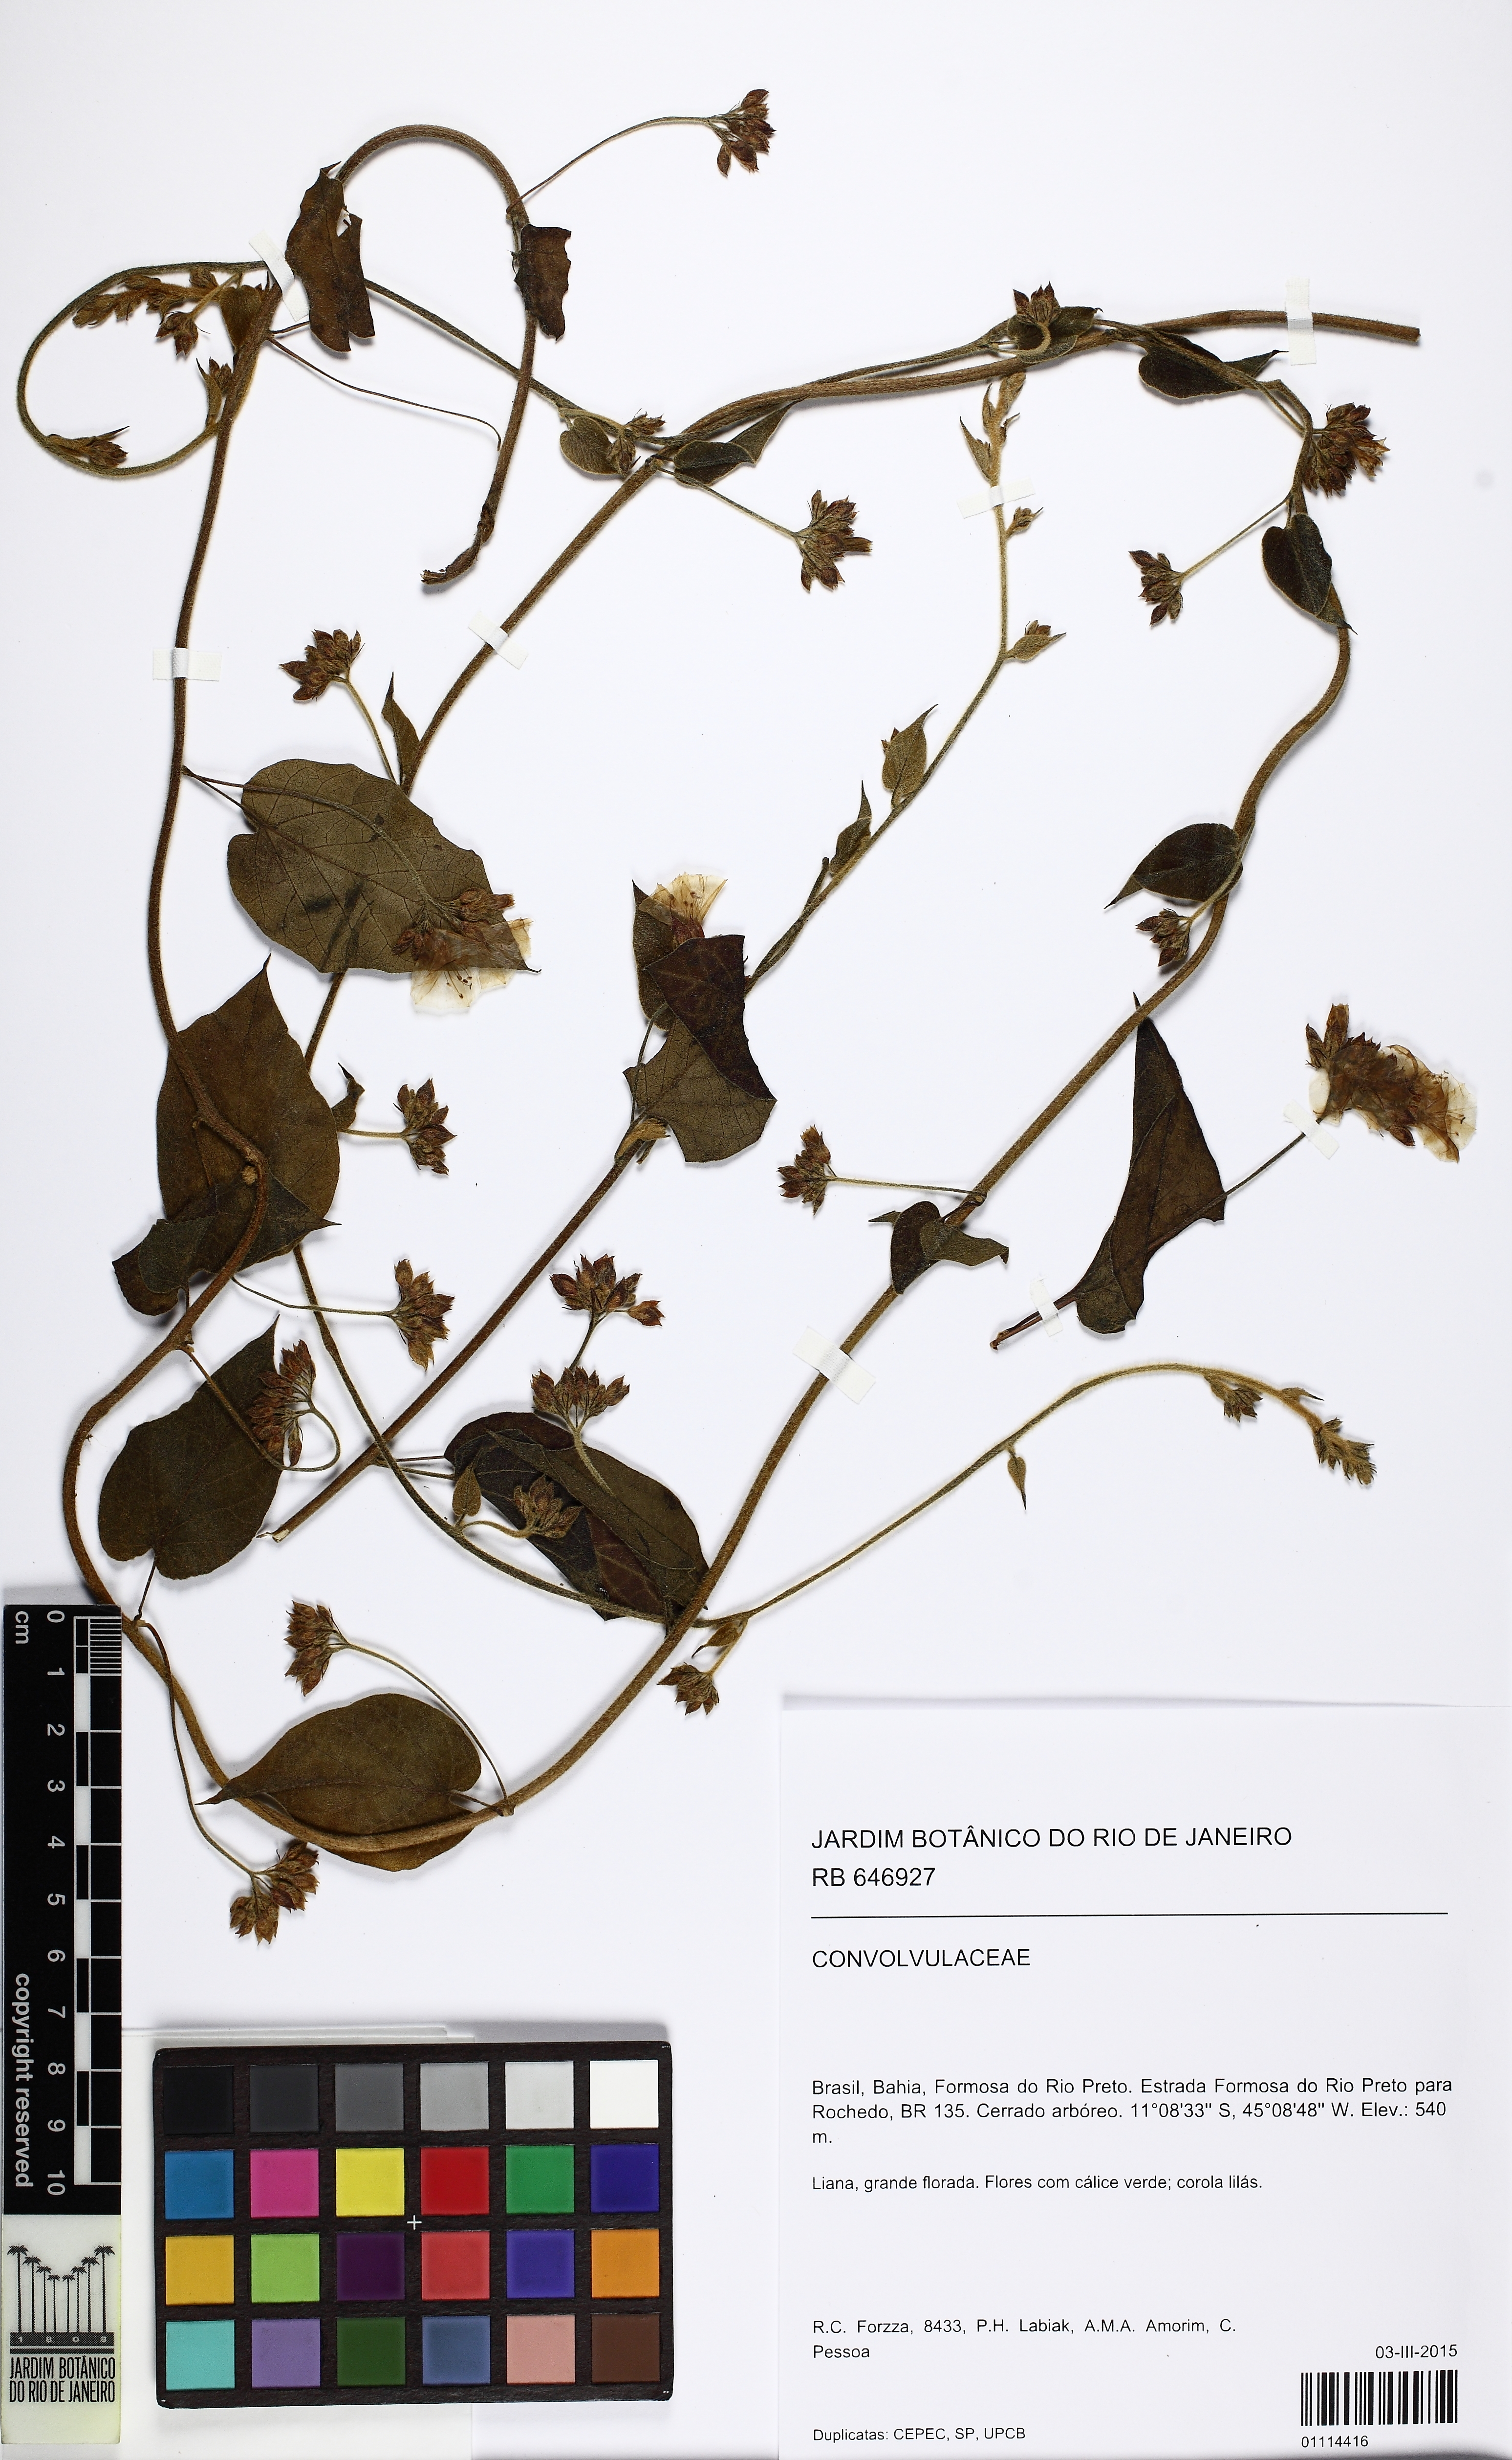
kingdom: Plantae
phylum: Tracheophyta
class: Magnoliopsida
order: Solanales
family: Convolvulaceae
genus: Jacquemontia
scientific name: Jacquemontia
